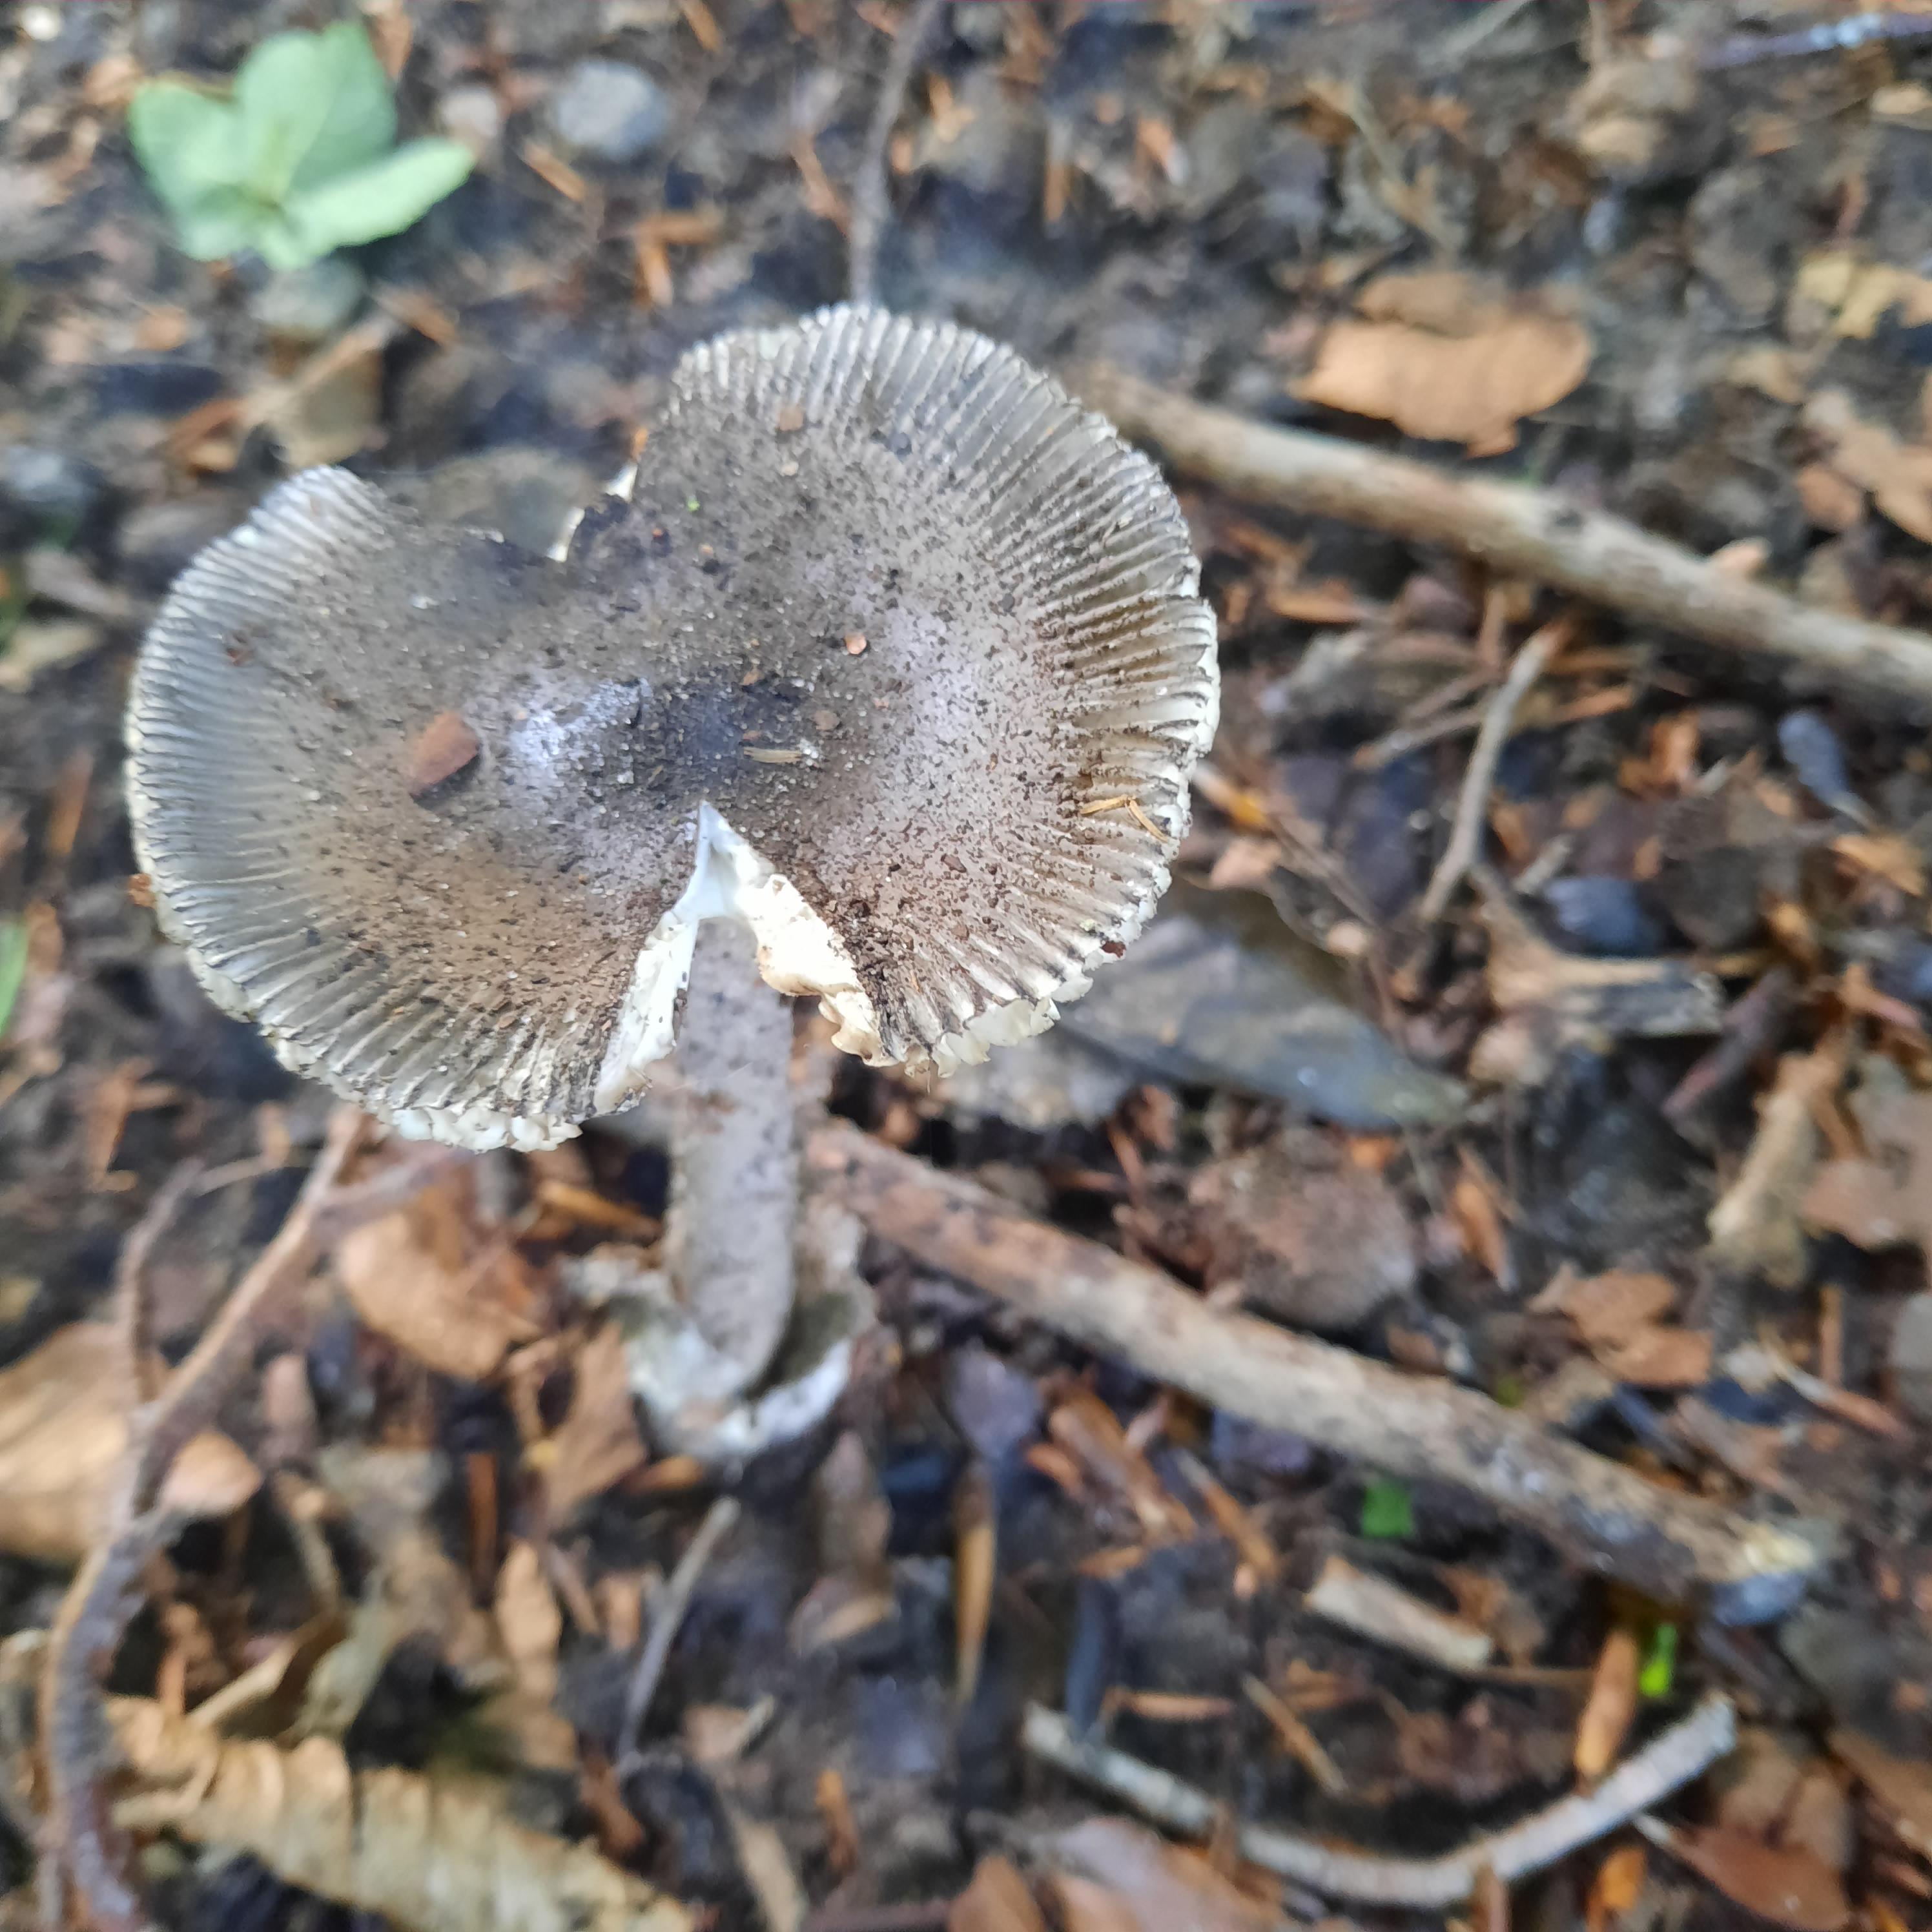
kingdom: Fungi
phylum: Basidiomycota
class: Agaricomycetes
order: Agaricales
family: Amanitaceae
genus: Amanita
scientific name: Amanita
